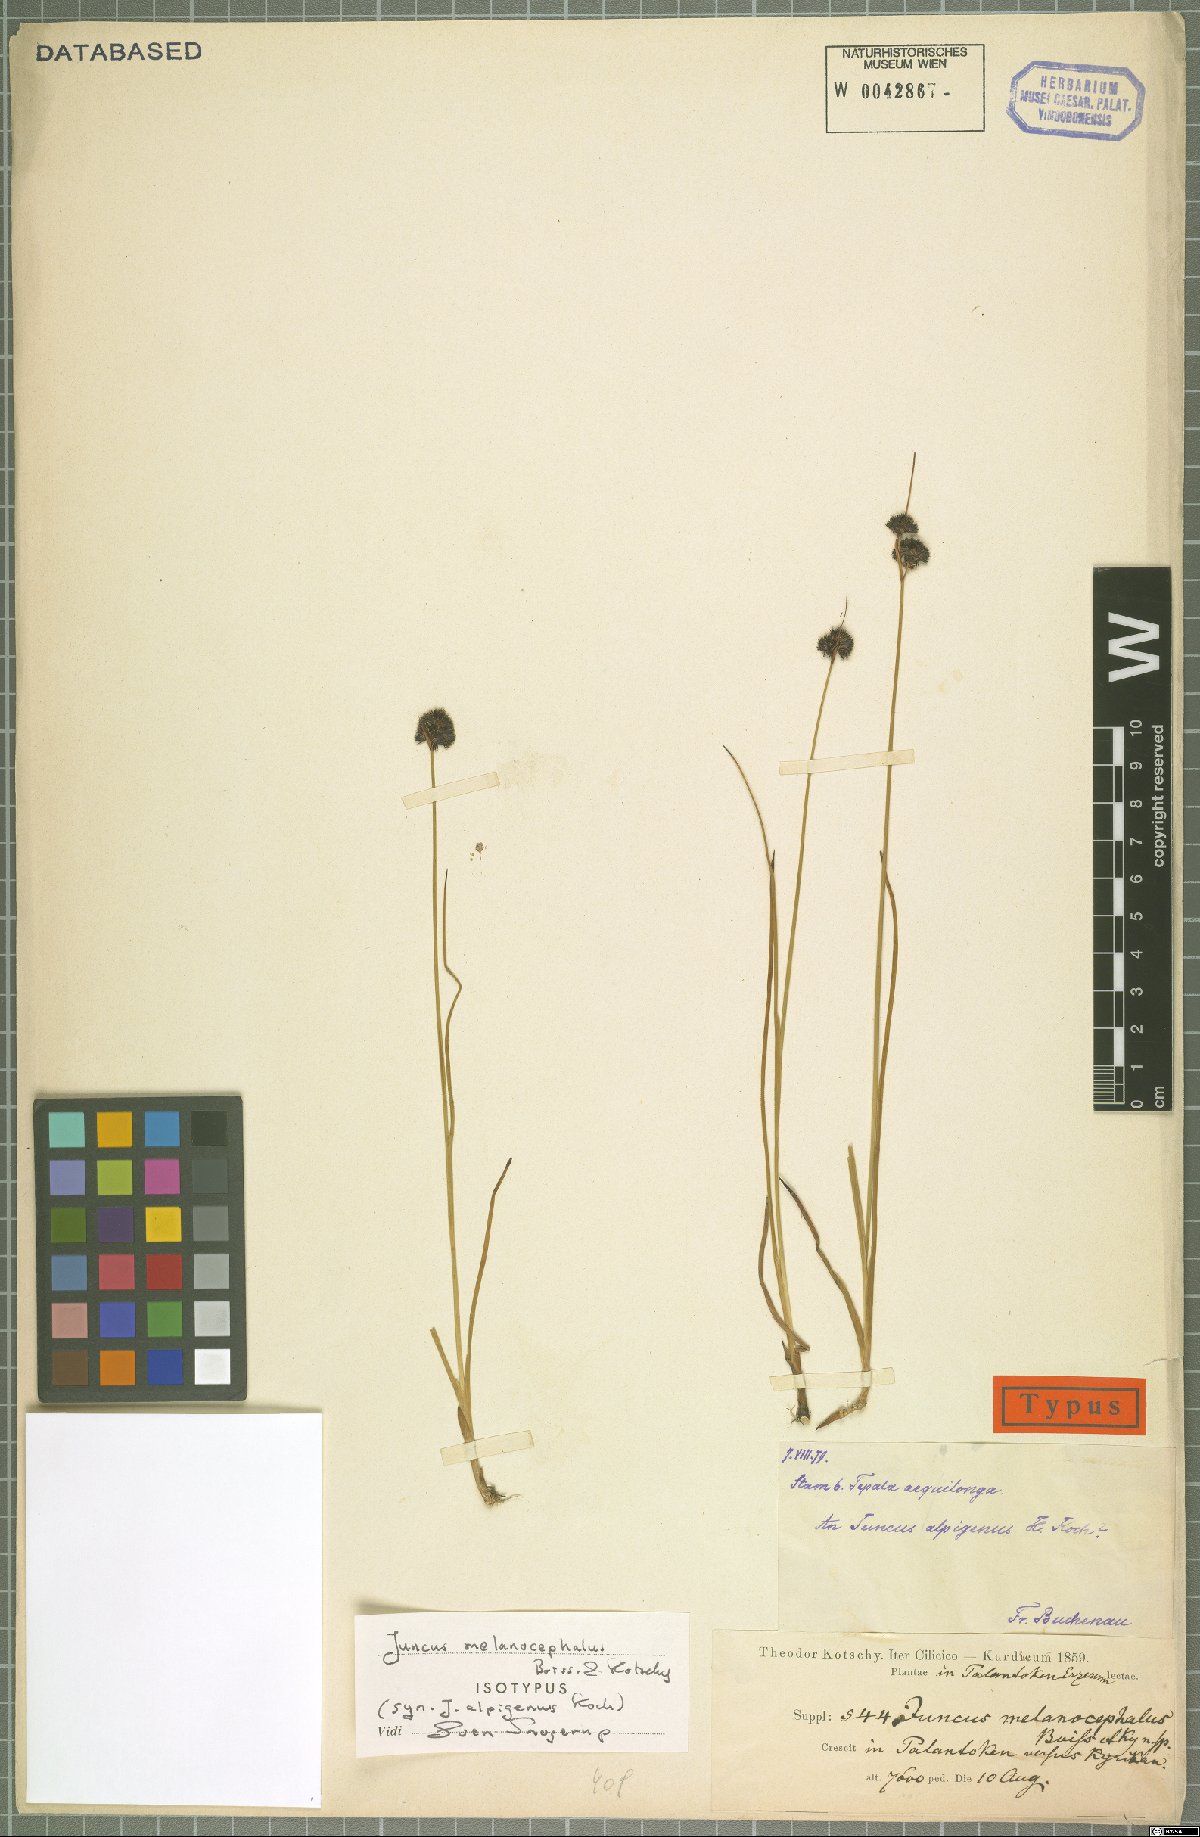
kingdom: Plantae
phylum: Tracheophyta
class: Liliopsida
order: Poales
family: Juncaceae
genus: Juncus
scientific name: Juncus alpigenus
